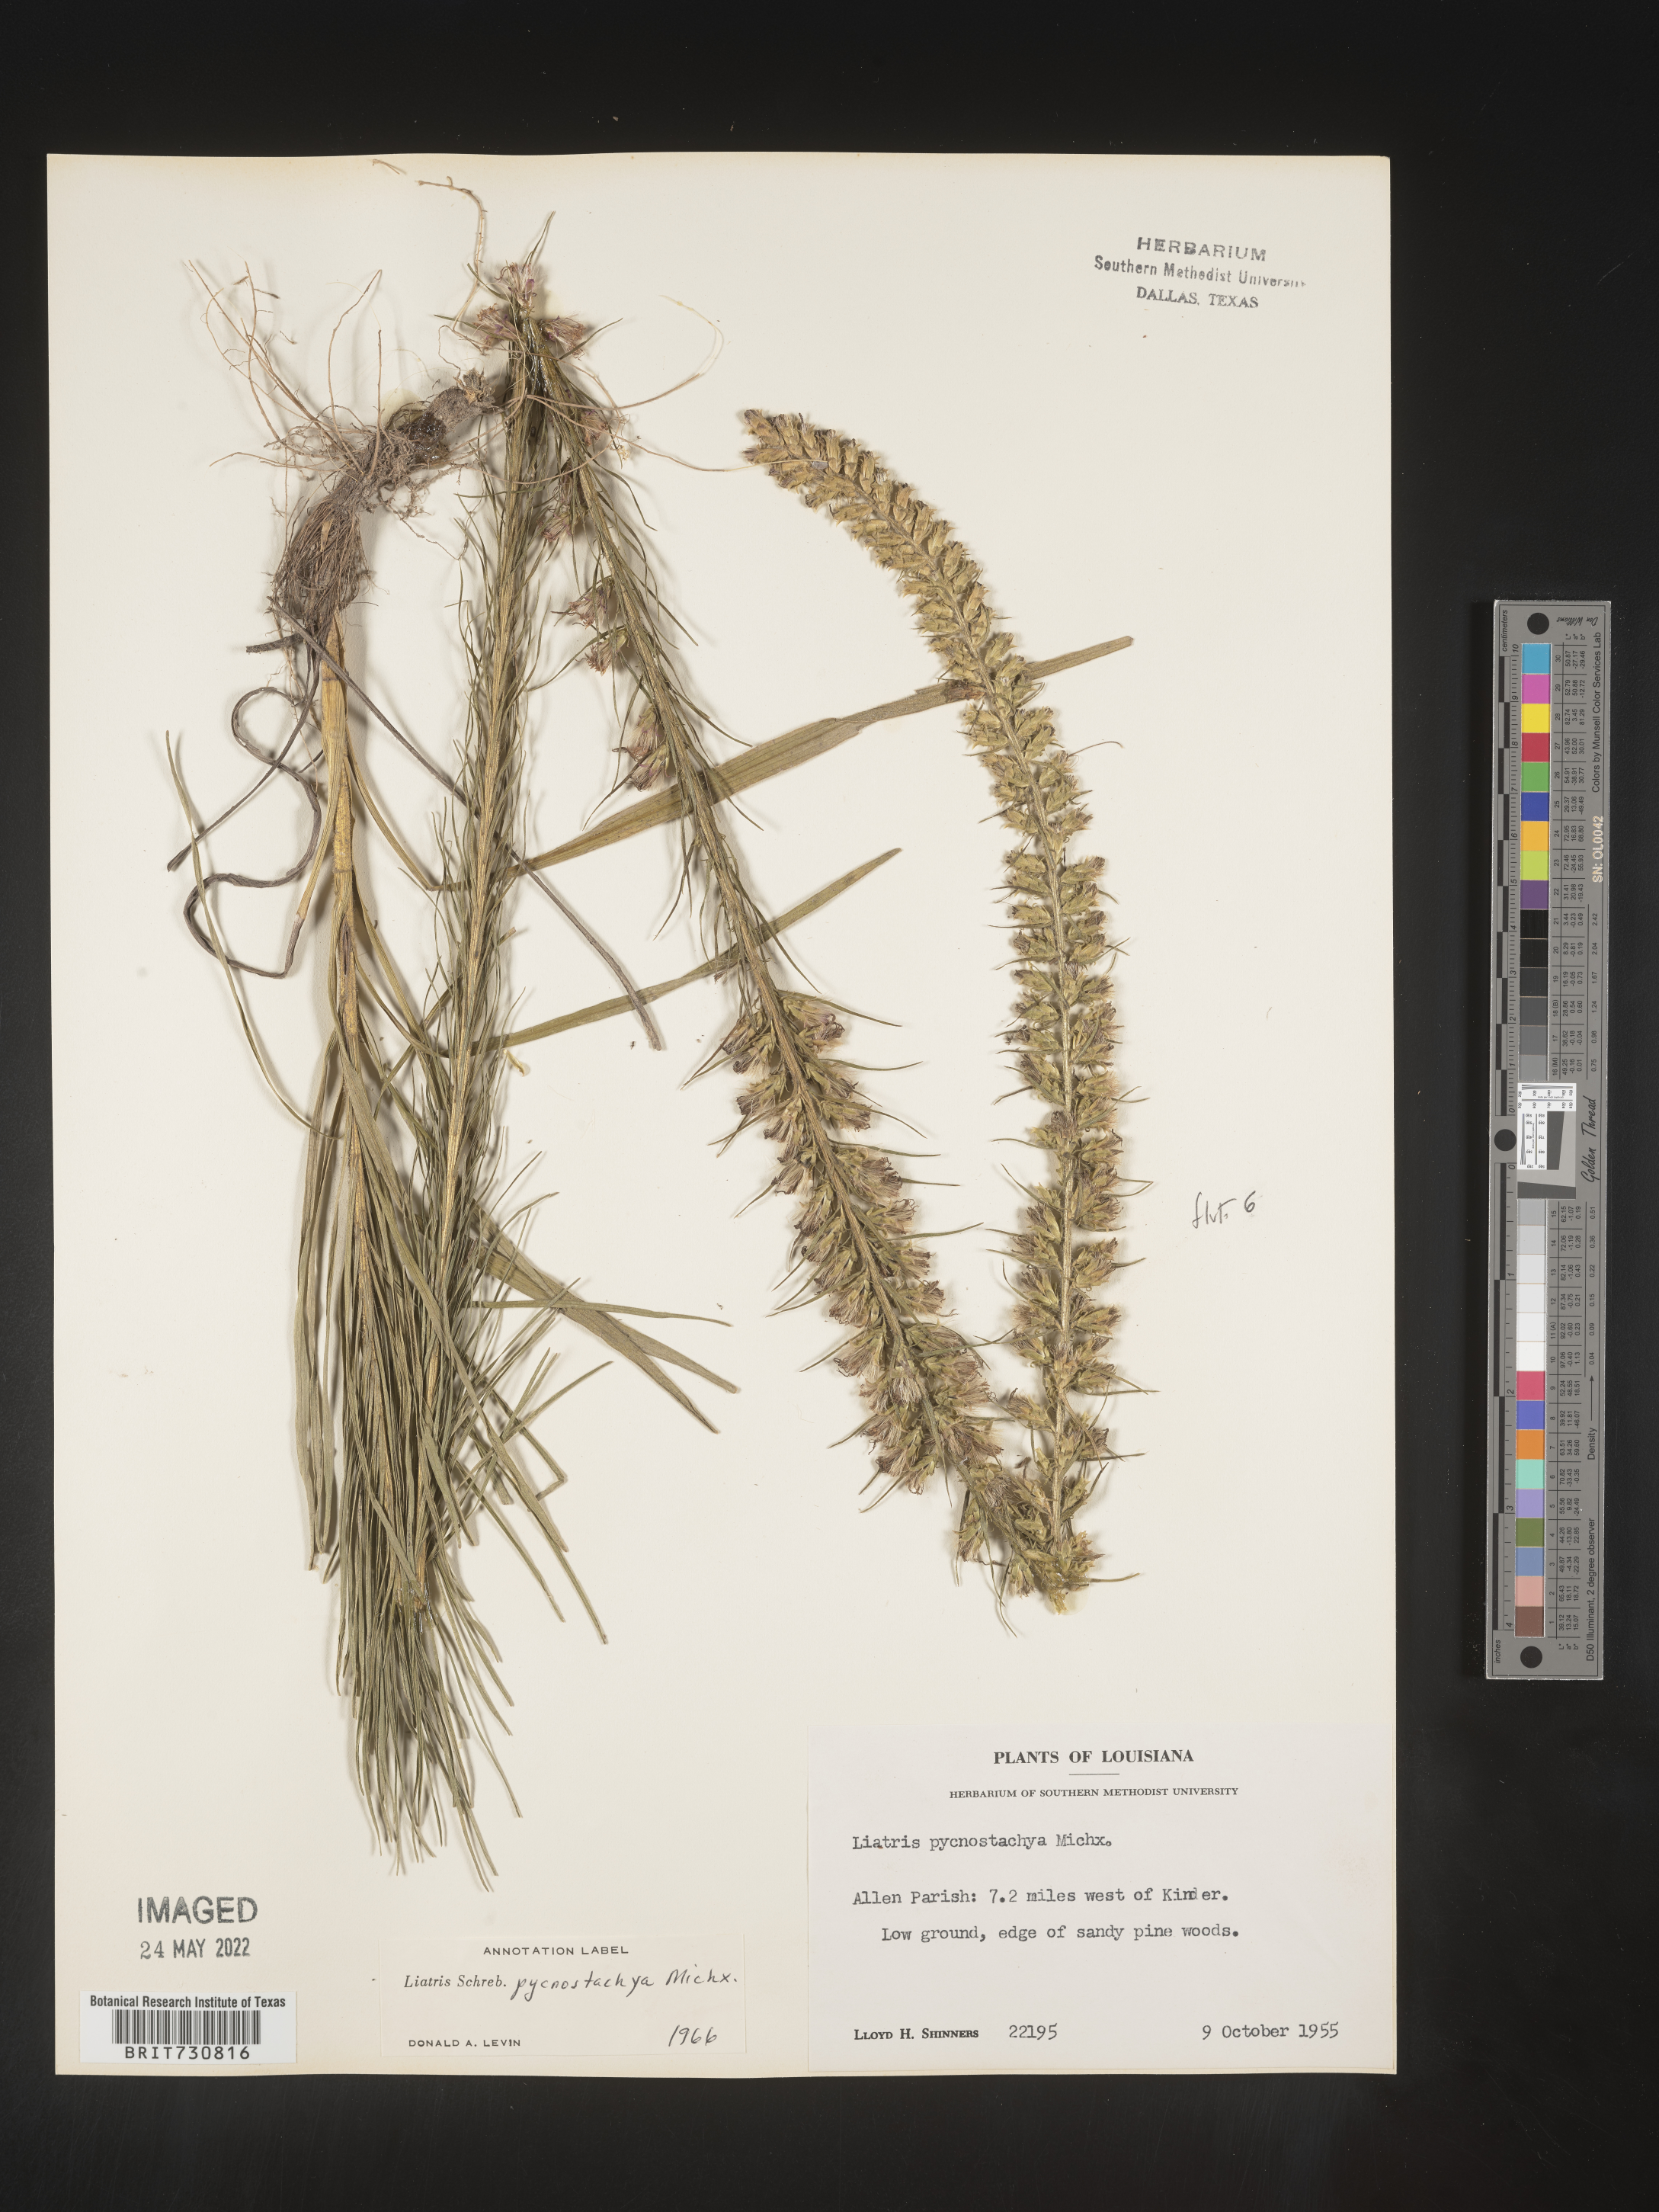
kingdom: Plantae
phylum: Tracheophyta
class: Magnoliopsida
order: Asterales
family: Asteraceae
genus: Liatris
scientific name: Liatris pycnostachya
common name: Cattail gayfeather
